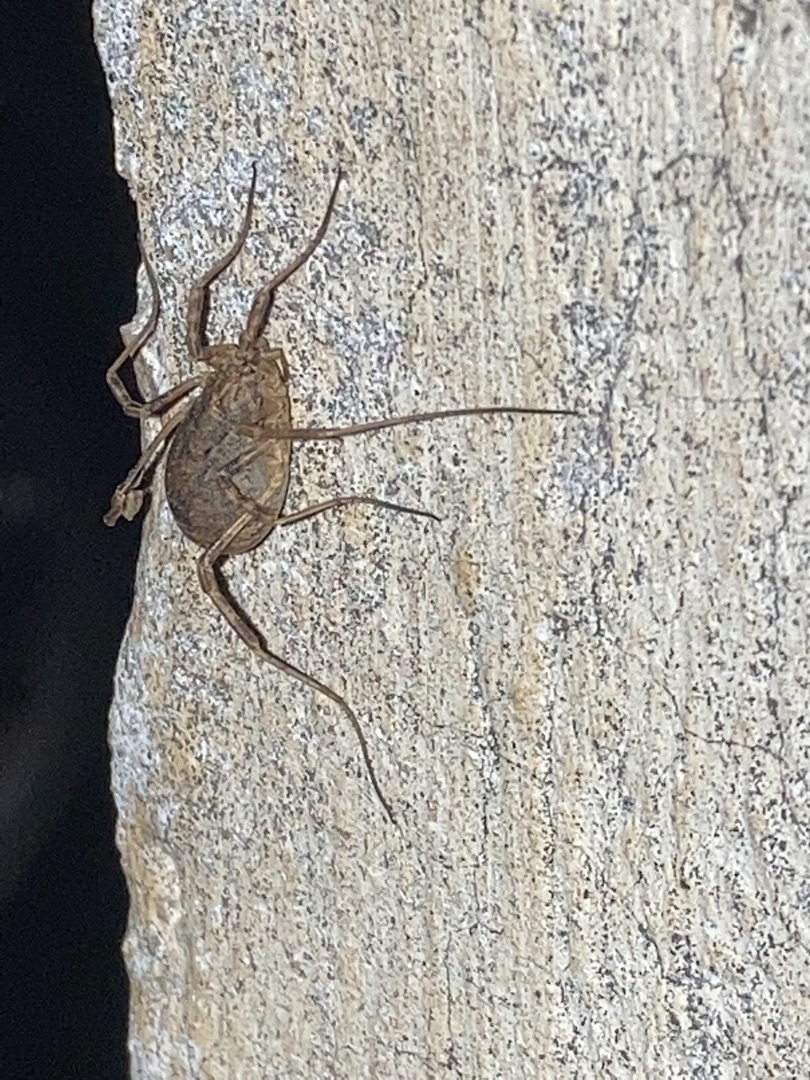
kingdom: Animalia
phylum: Arthropoda
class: Arachnida
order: Opiliones
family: Phalangiidae
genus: Odiellus
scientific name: Odiellus spinosus
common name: Kæmpemejer
